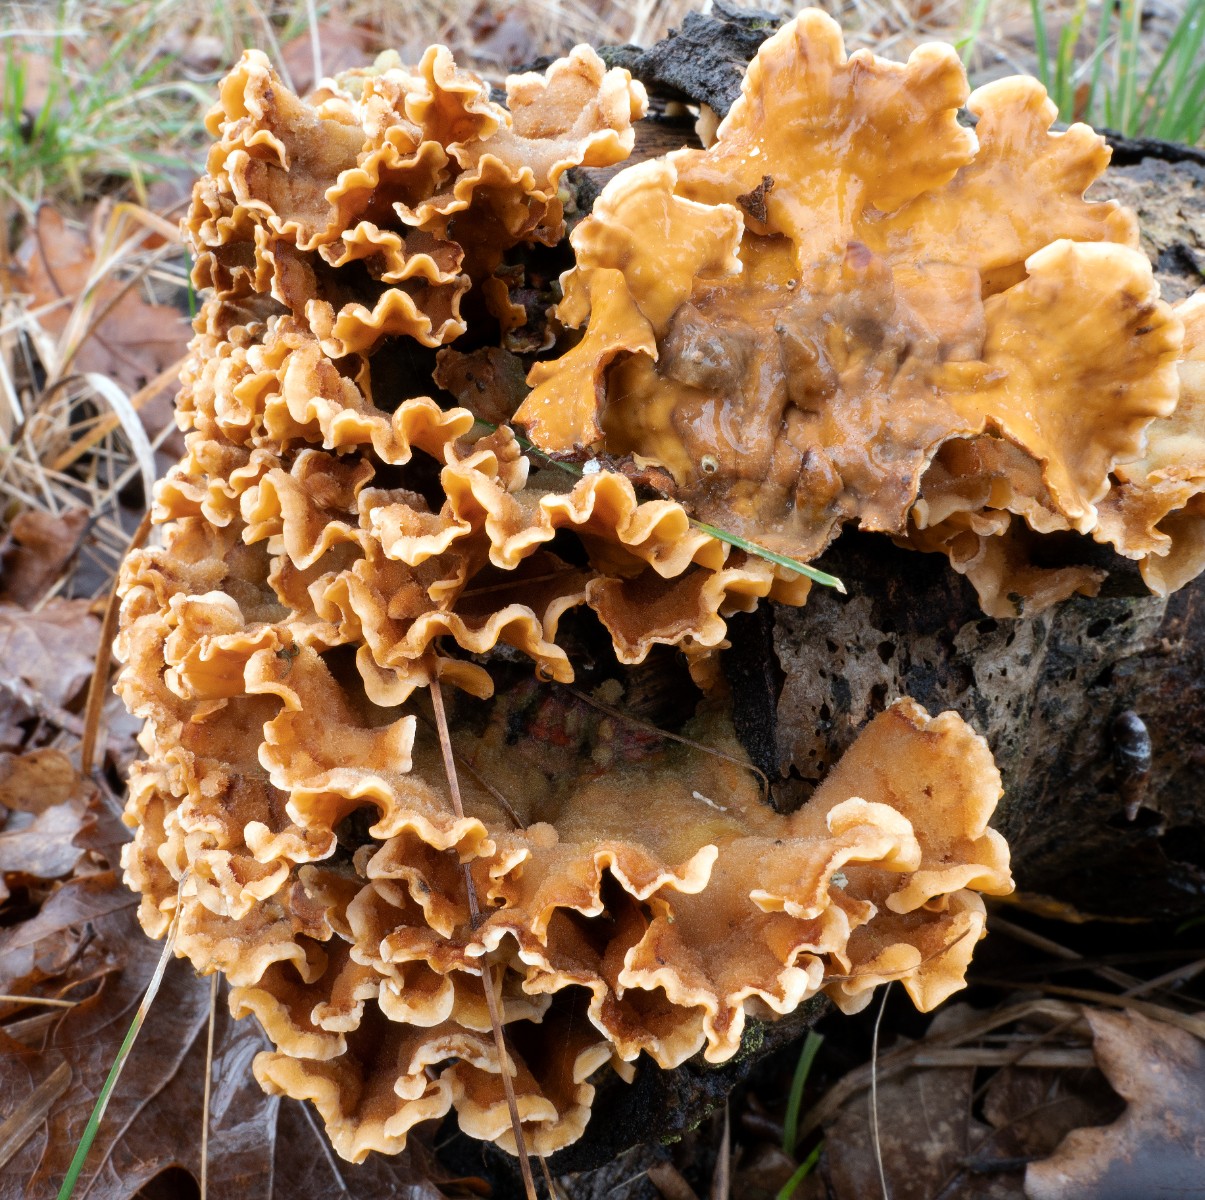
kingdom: Fungi
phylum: Basidiomycota
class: Agaricomycetes
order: Russulales
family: Stereaceae
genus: Stereum
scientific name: Stereum hirsutum
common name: håret lædersvamp
